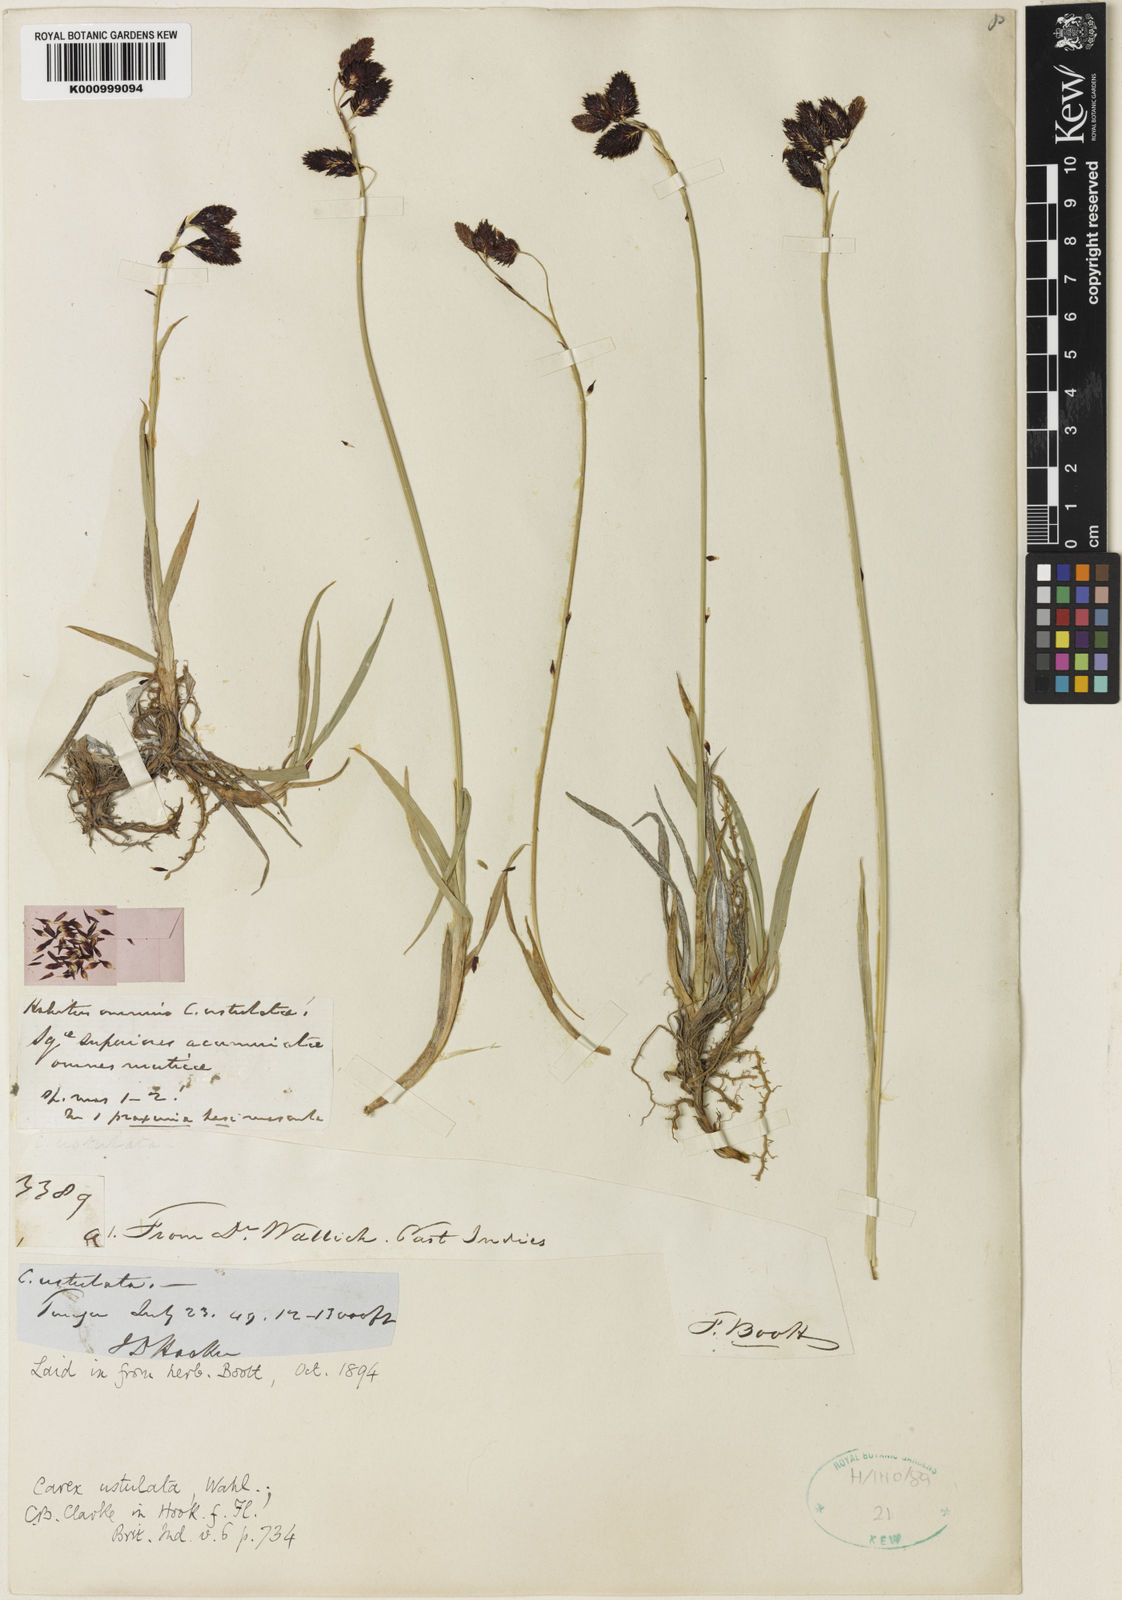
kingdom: Plantae
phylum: Tracheophyta
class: Liliopsida
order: Poales
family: Cyperaceae
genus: Carex
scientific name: Carex atrofusca
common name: Scorched alpine-sedge
